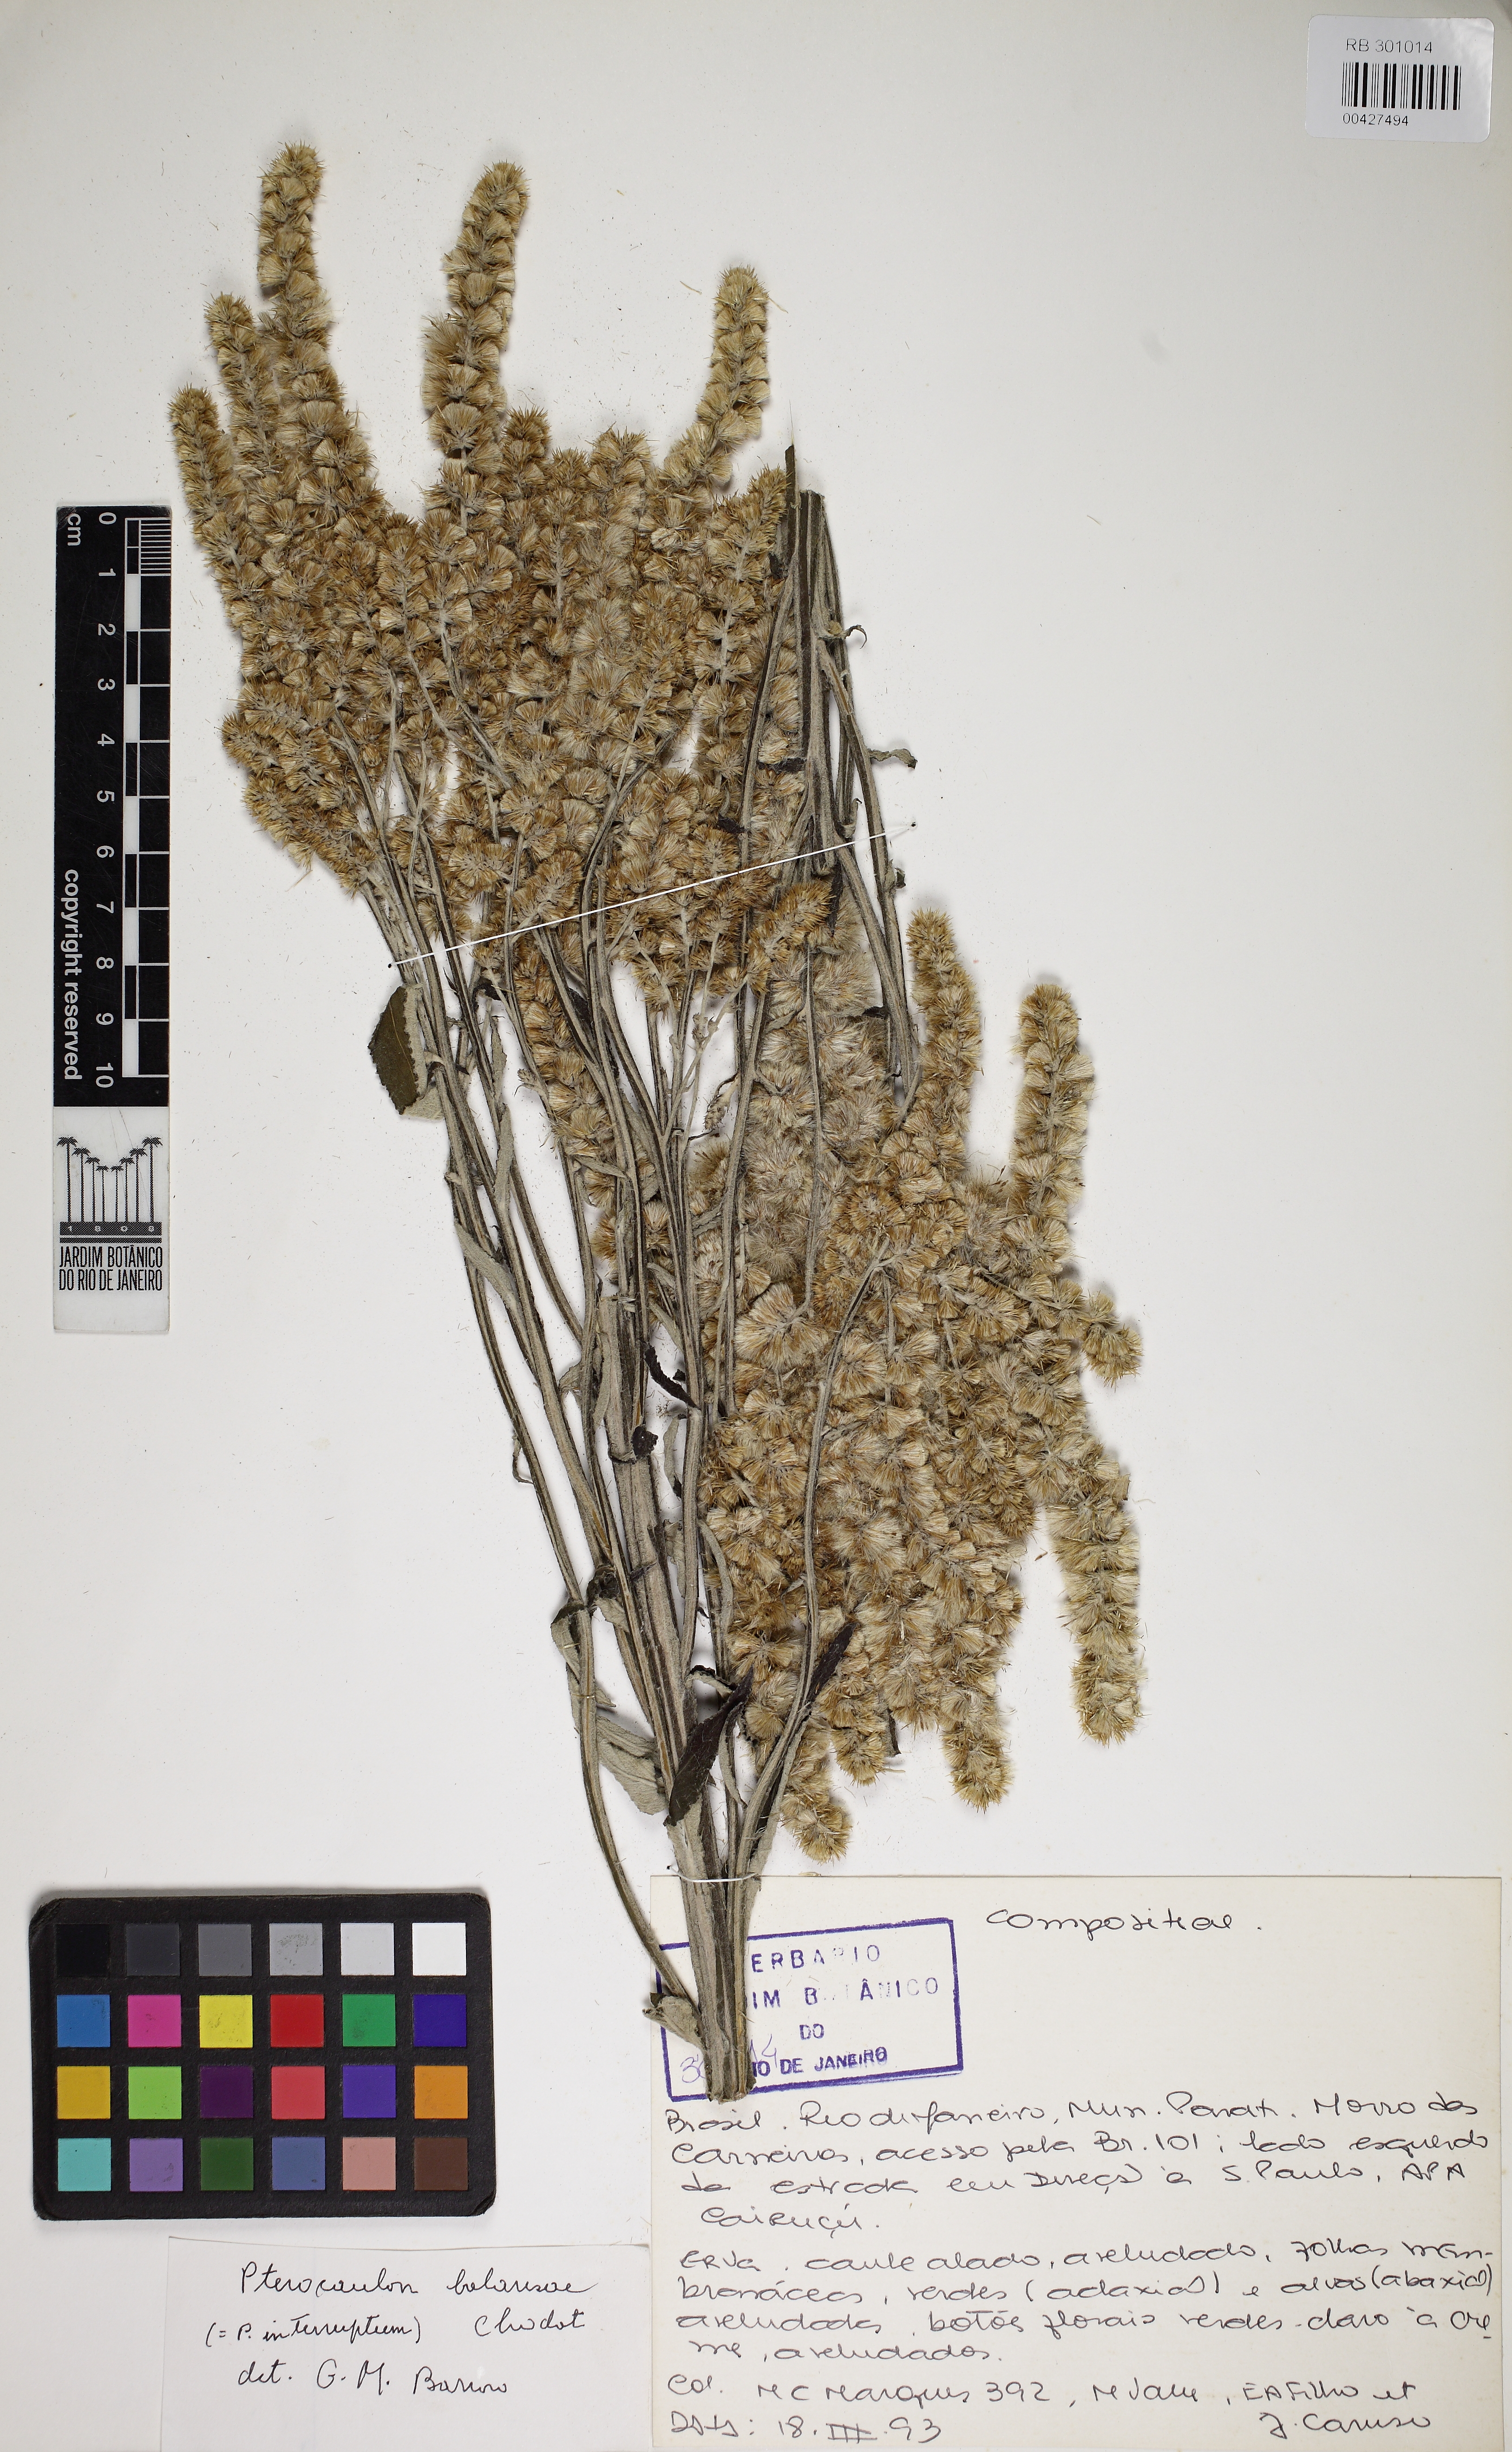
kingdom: Plantae
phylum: Tracheophyta
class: Magnoliopsida
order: Asterales
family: Asteraceae
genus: Pterocaulon
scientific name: Pterocaulon balansae
